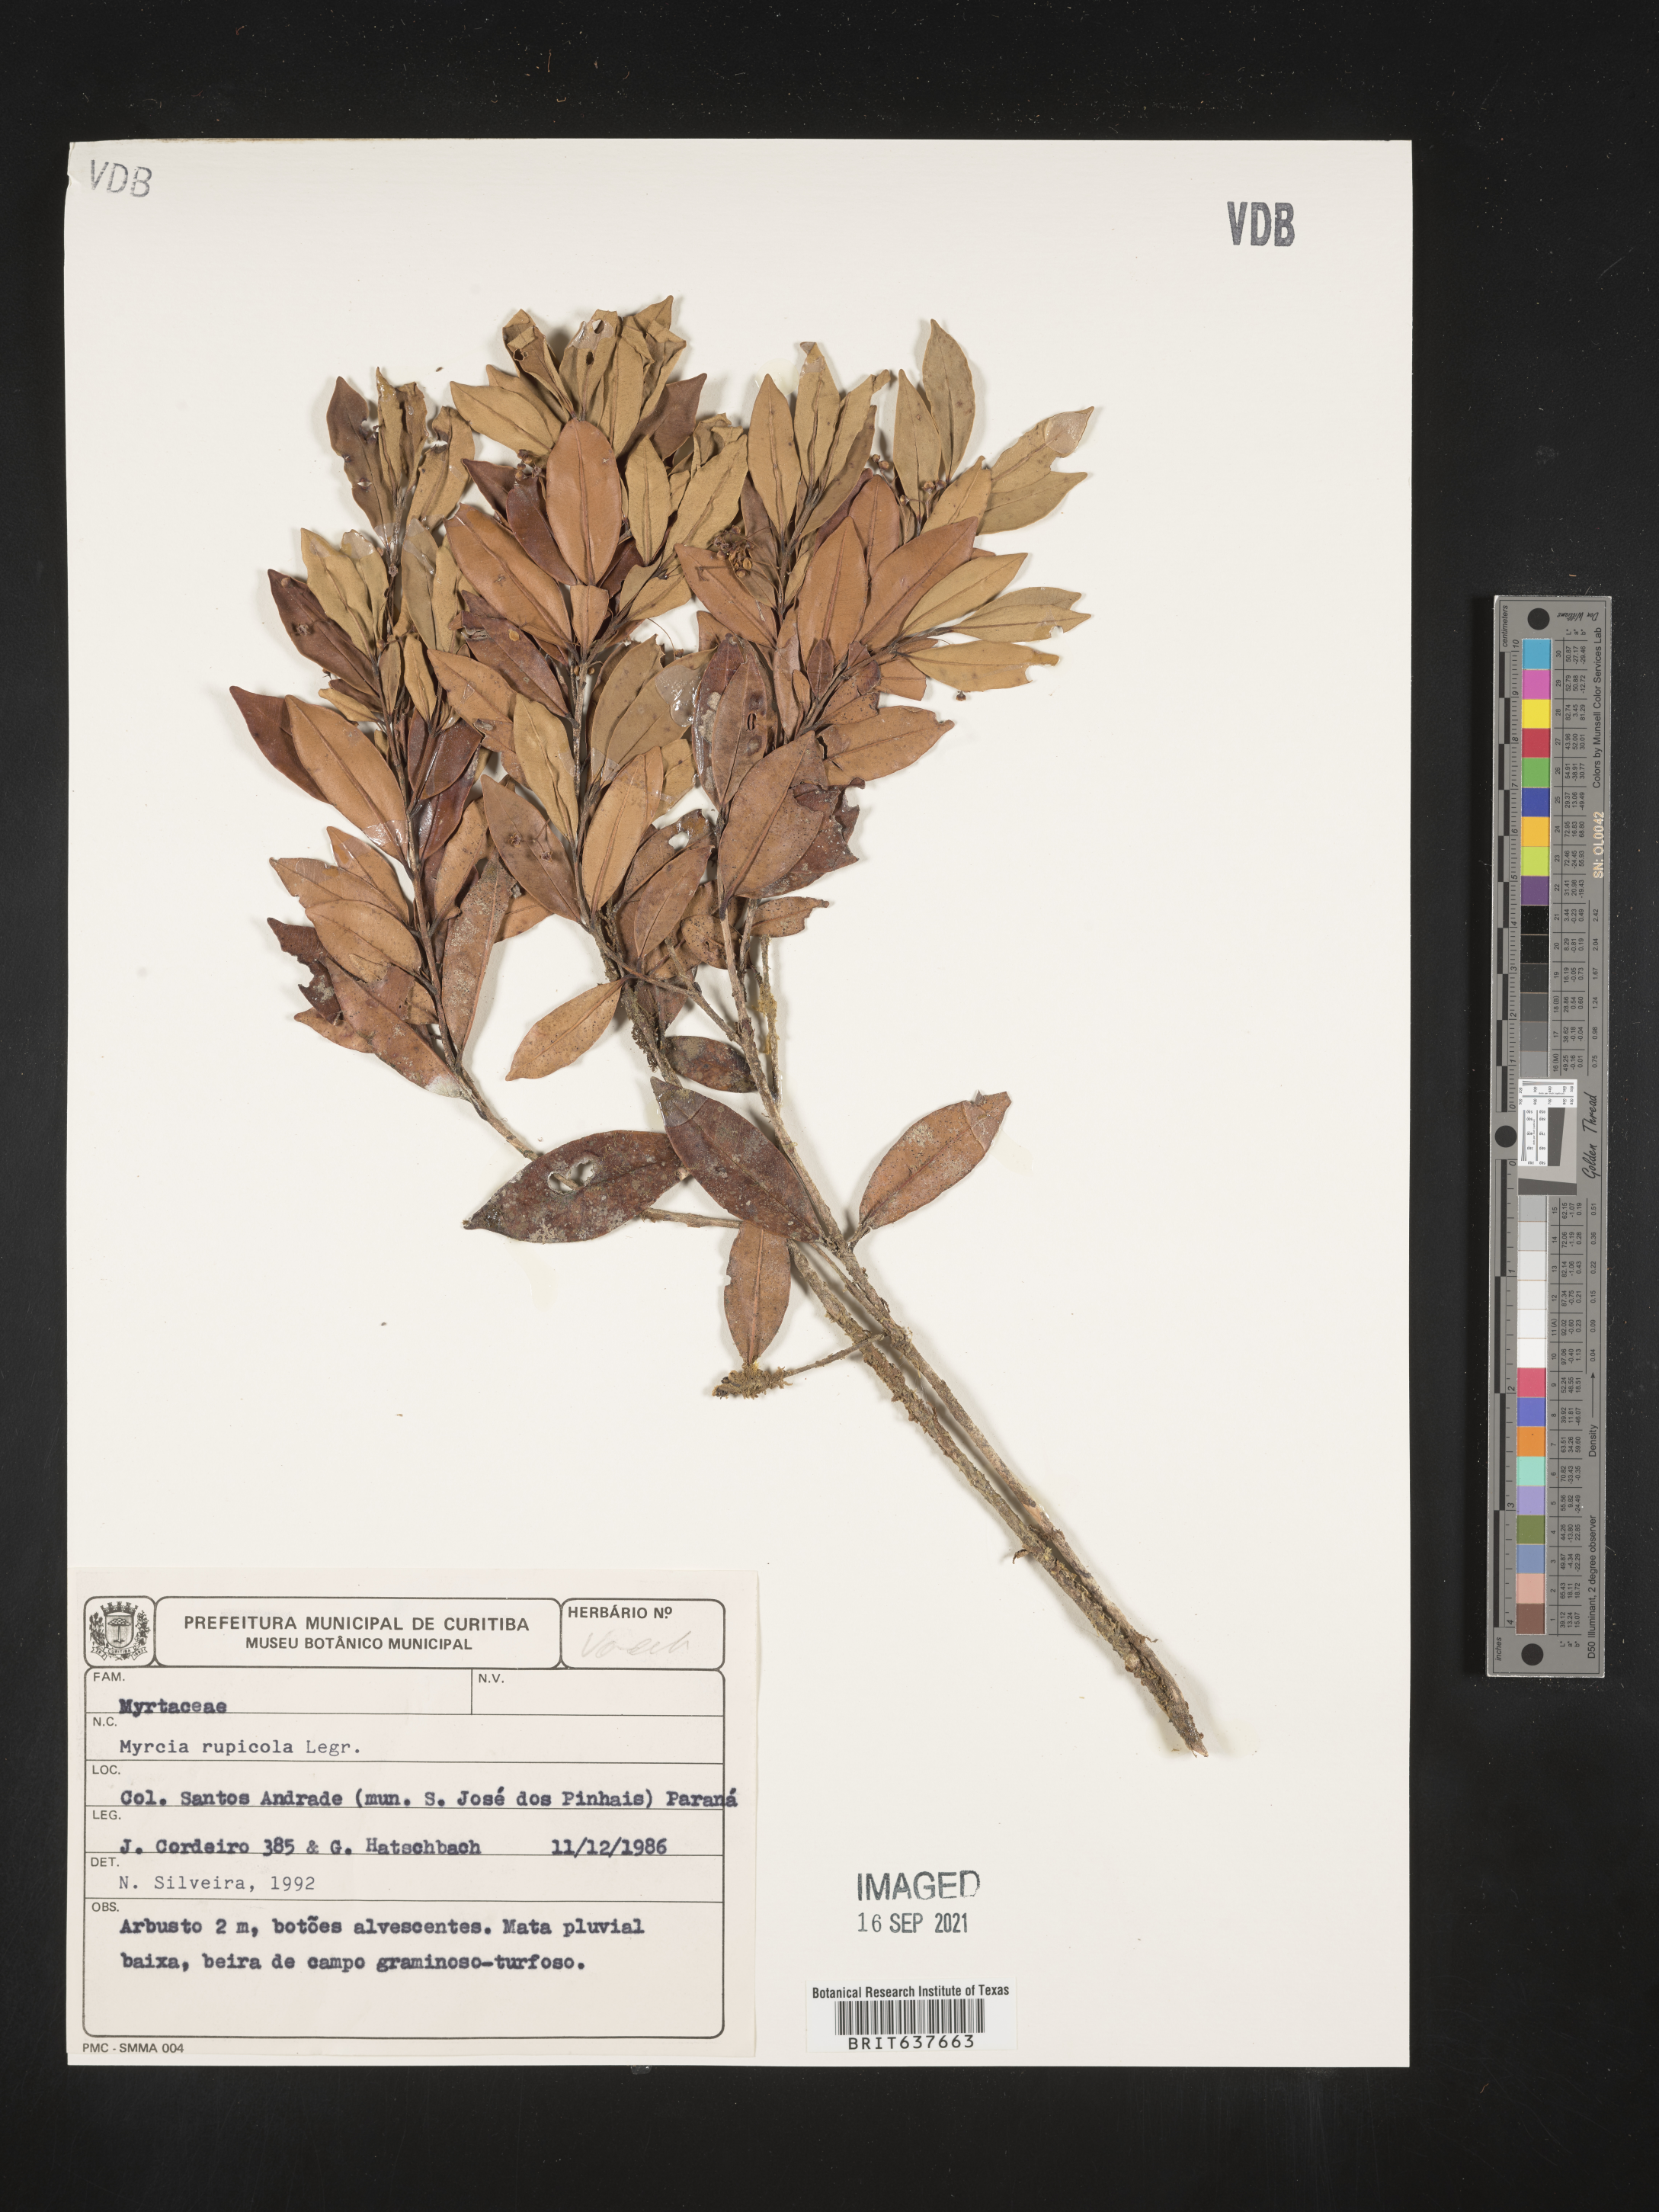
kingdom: Plantae
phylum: Tracheophyta
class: Magnoliopsida
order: Myrtales
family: Myrtaceae
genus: Myrcia
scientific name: Myrcia
